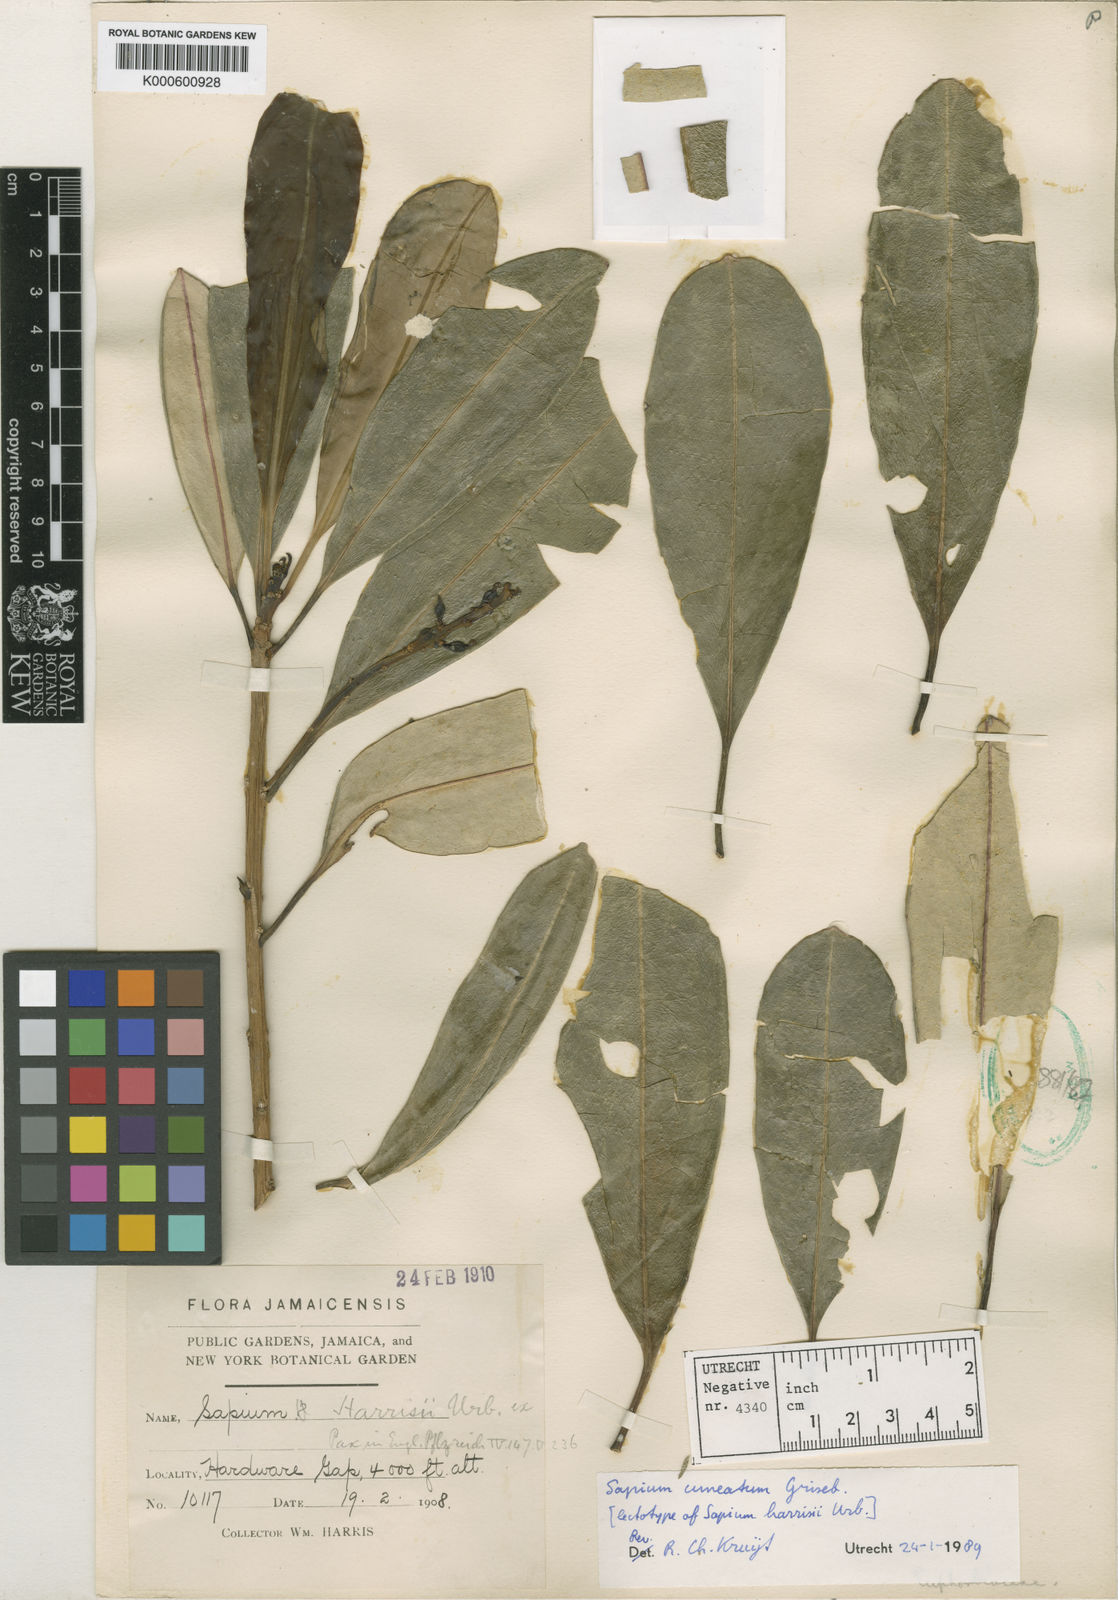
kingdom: Plantae
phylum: Tracheophyta
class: Magnoliopsida
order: Malpighiales
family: Euphorbiaceae
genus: Sapium
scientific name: Sapium
